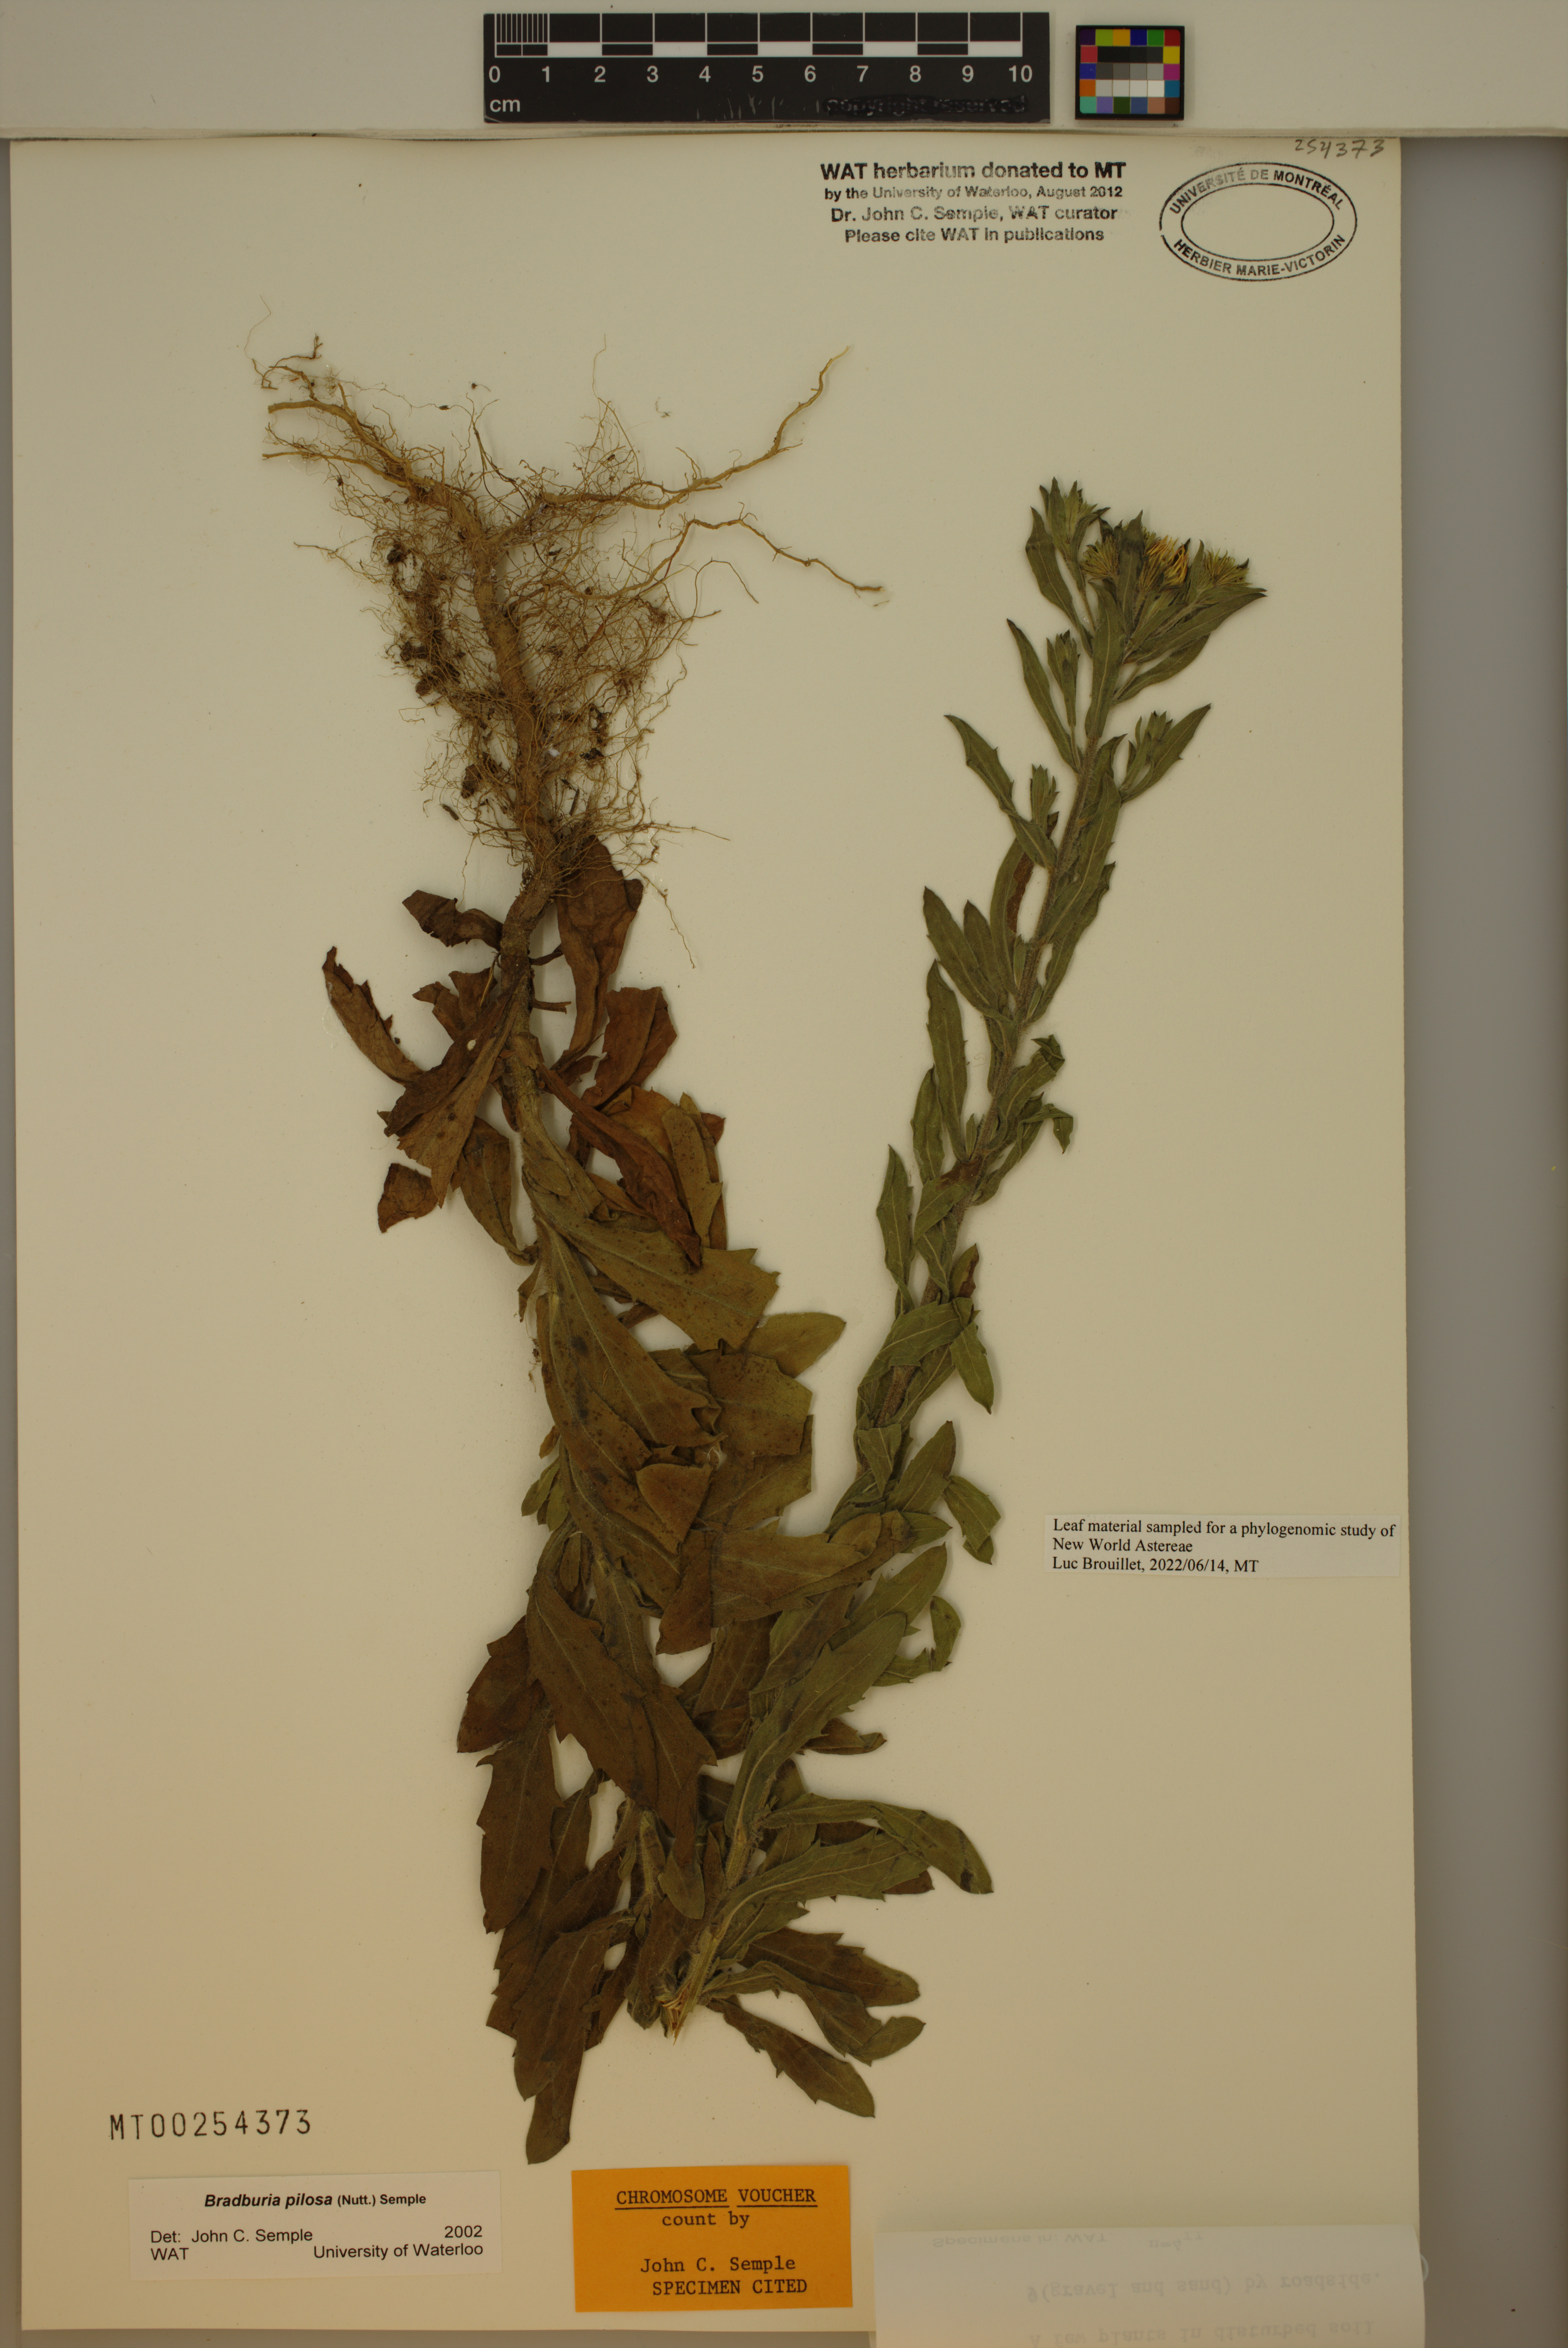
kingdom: Plantae
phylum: Tracheophyta
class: Magnoliopsida
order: Asterales
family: Asteraceae
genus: Bradburia
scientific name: Bradburia pilosa
